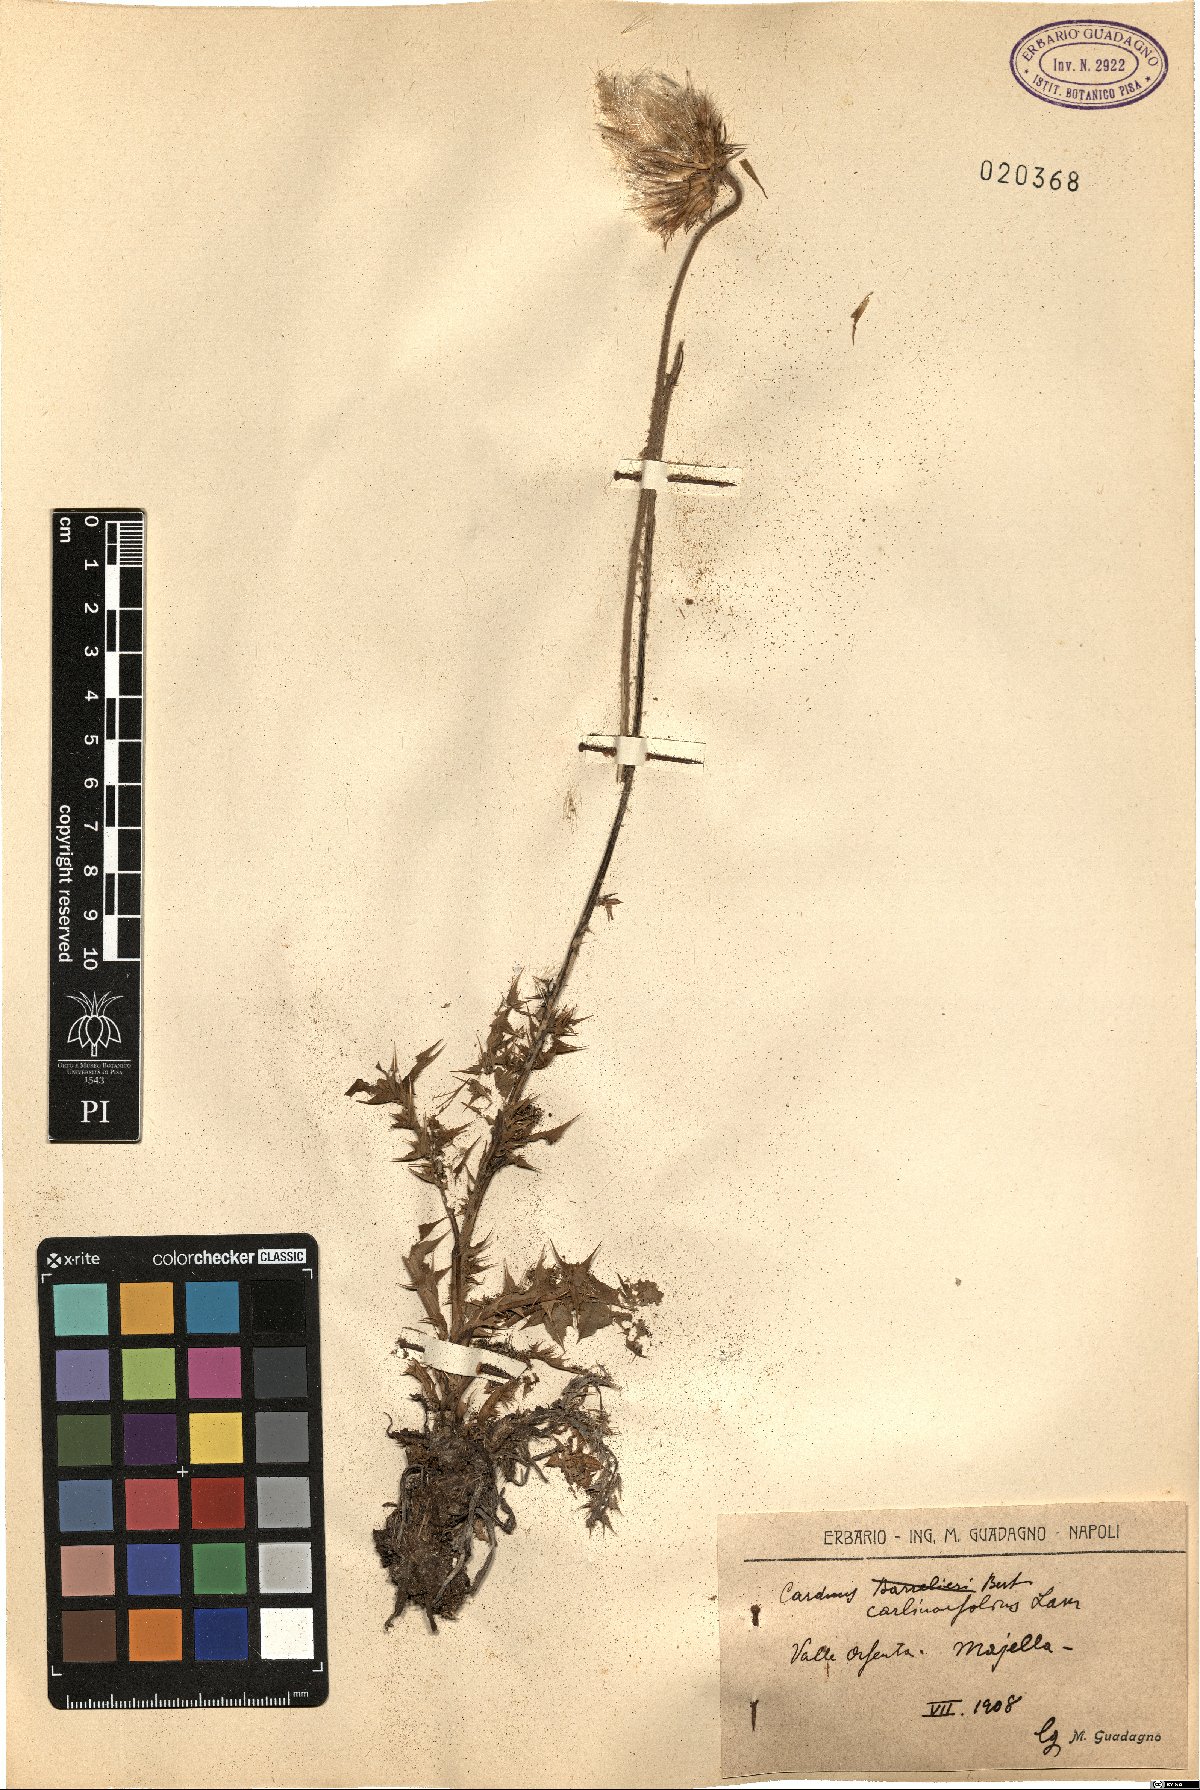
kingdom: Plantae
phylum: Tracheophyta
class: Magnoliopsida
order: Asterales
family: Asteraceae
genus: Carduus
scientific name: Carduus carlinifolius
